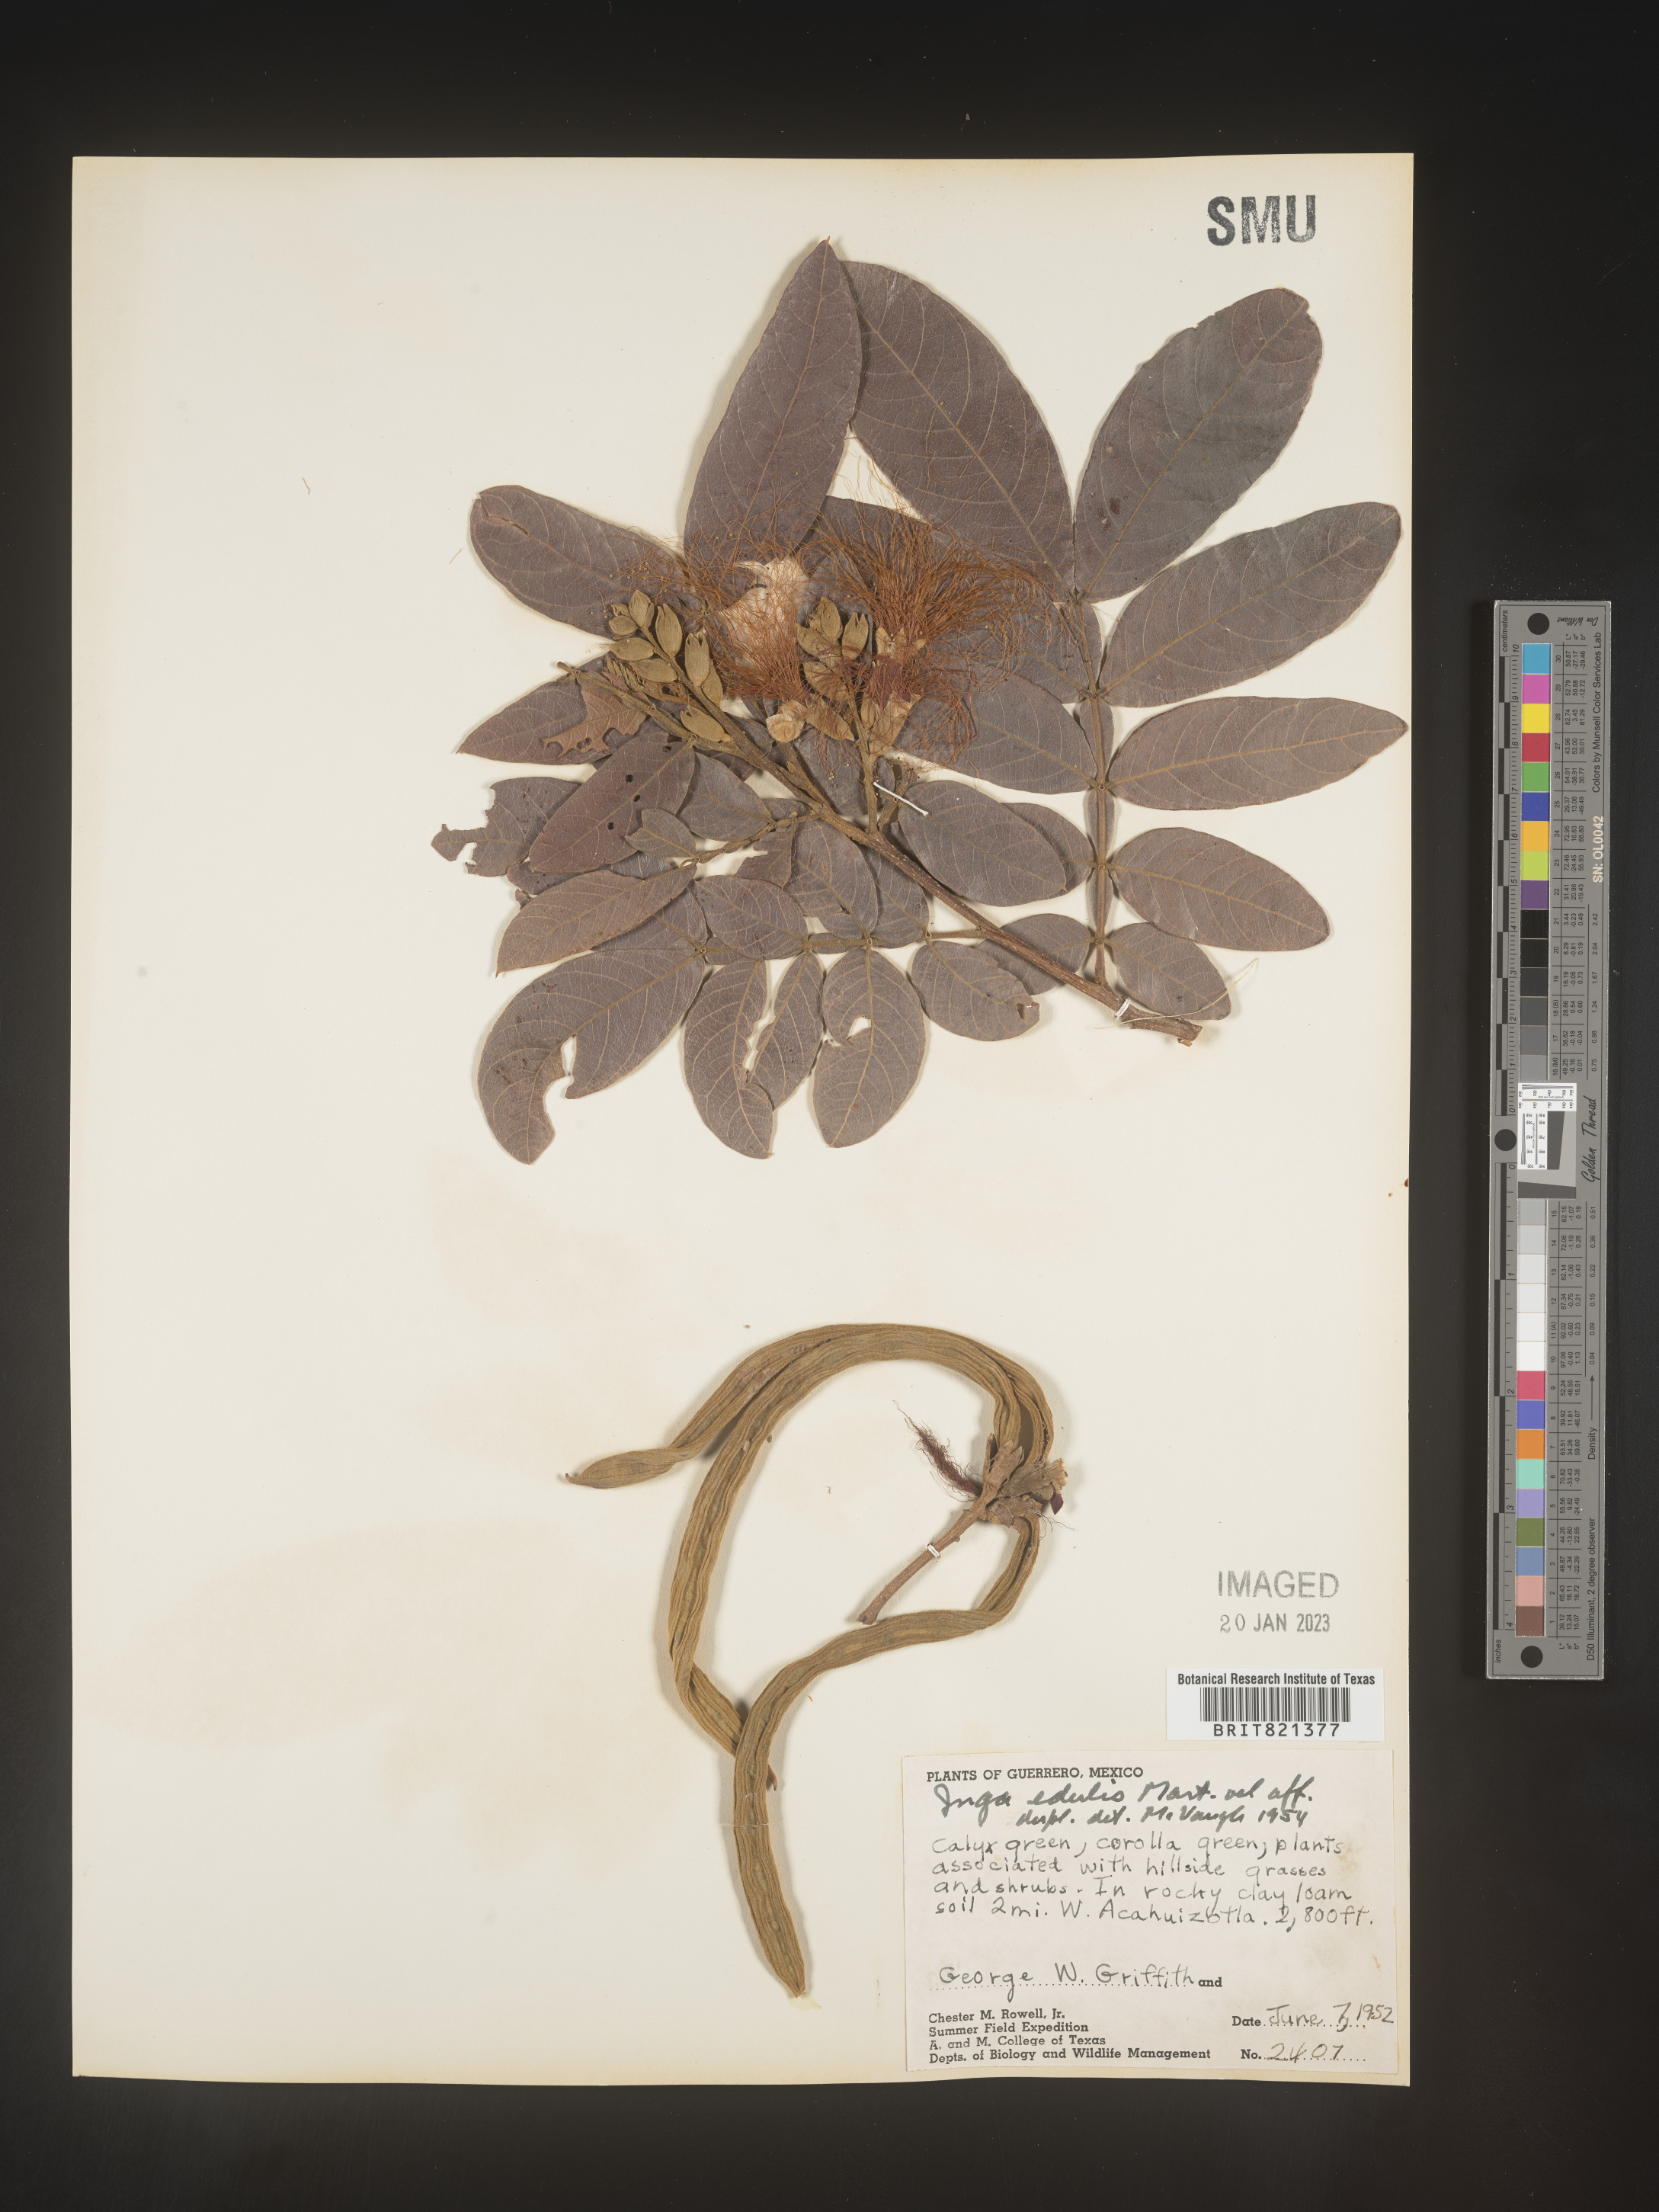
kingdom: Plantae
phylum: Tracheophyta
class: Magnoliopsida
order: Fabales
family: Fabaceae
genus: Inga
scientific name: Inga
